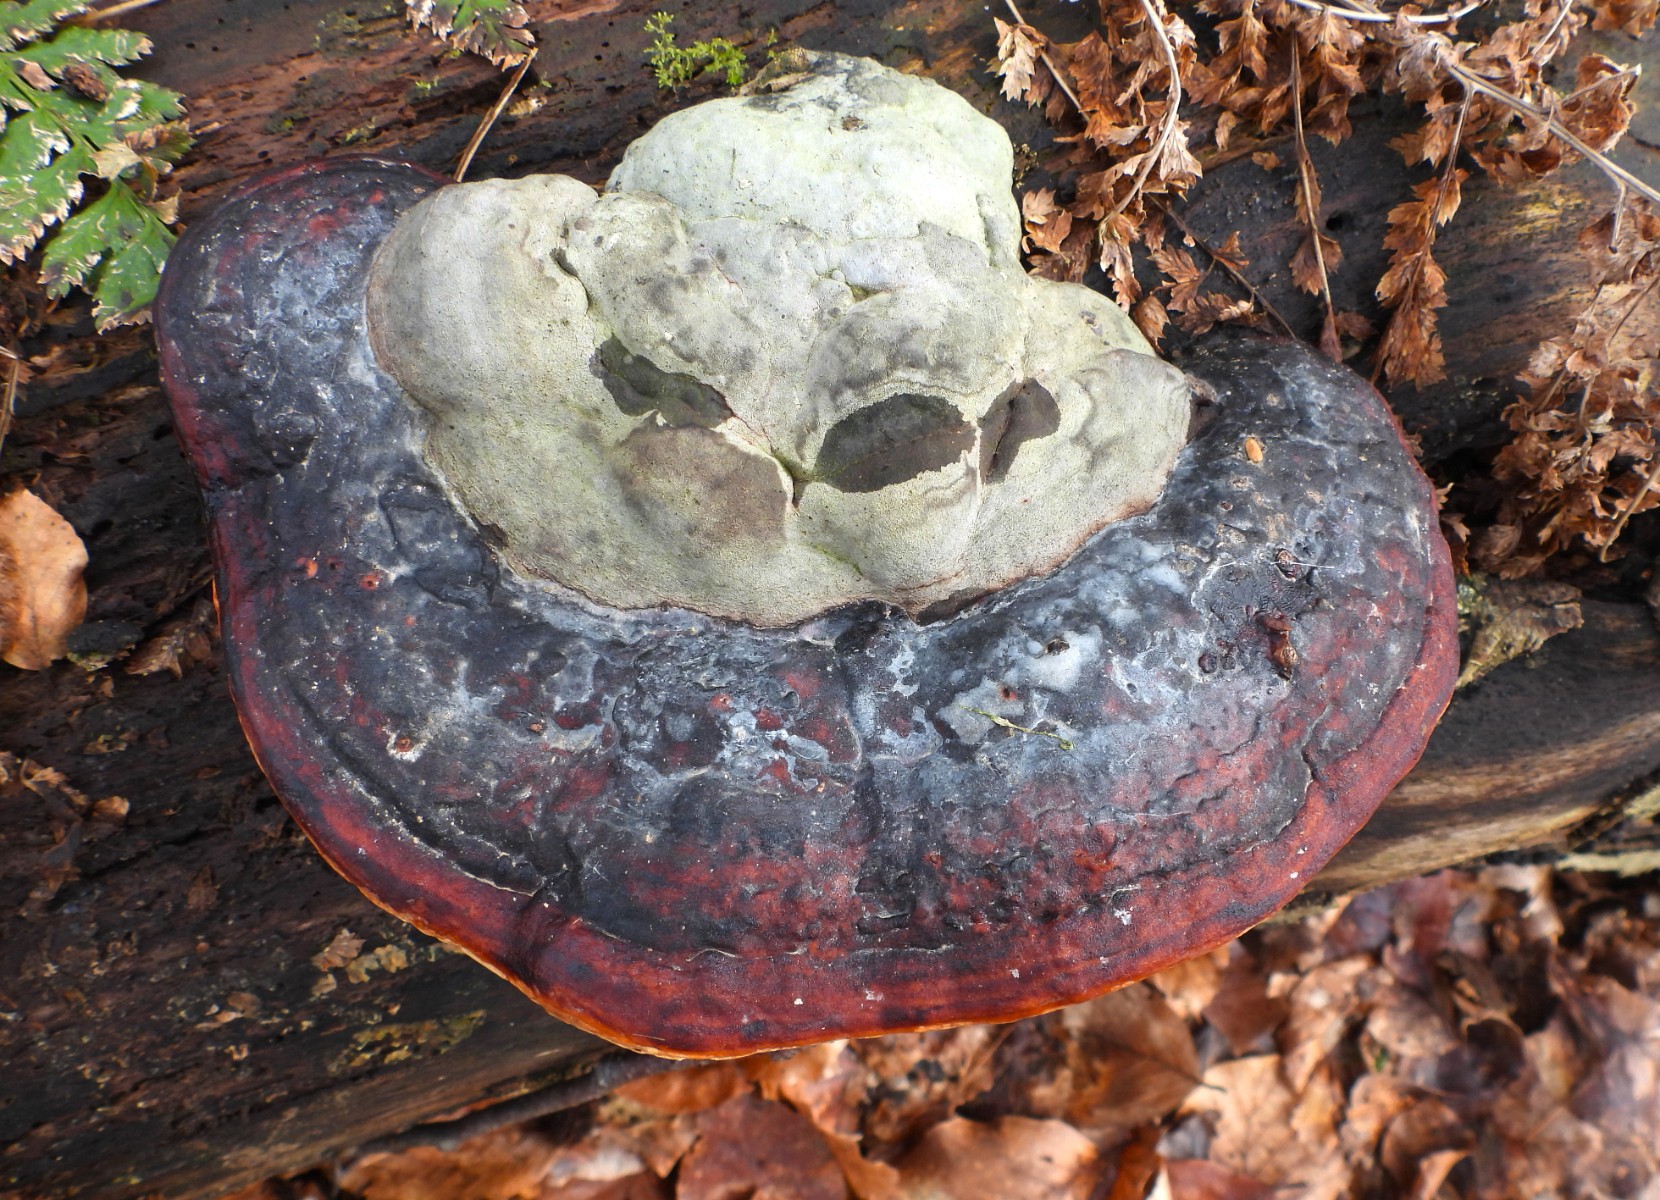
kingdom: Fungi
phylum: Basidiomycota
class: Agaricomycetes
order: Polyporales
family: Fomitopsidaceae
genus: Fomitopsis
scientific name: Fomitopsis pinicola
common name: randbæltet hovporesvamp
